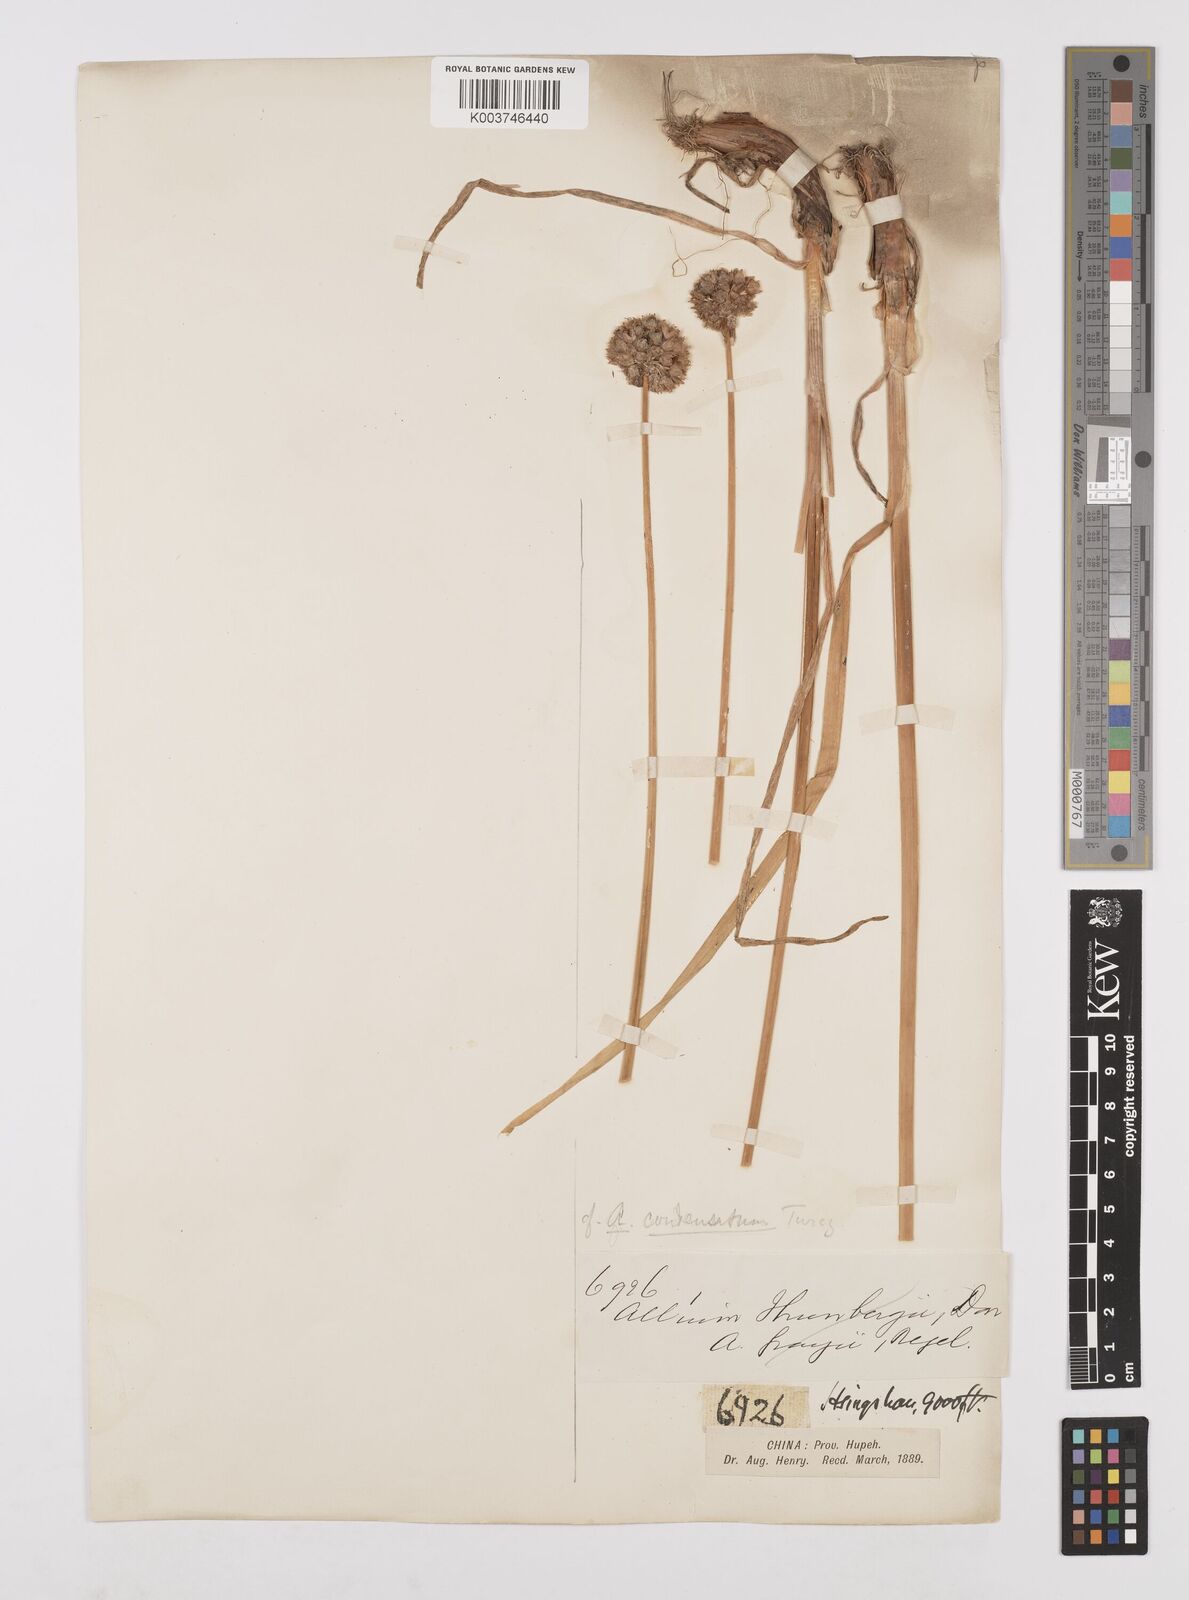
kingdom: Plantae
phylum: Tracheophyta
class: Liliopsida
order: Asparagales
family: Amaryllidaceae
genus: Allium
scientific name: Allium chrysanthum
